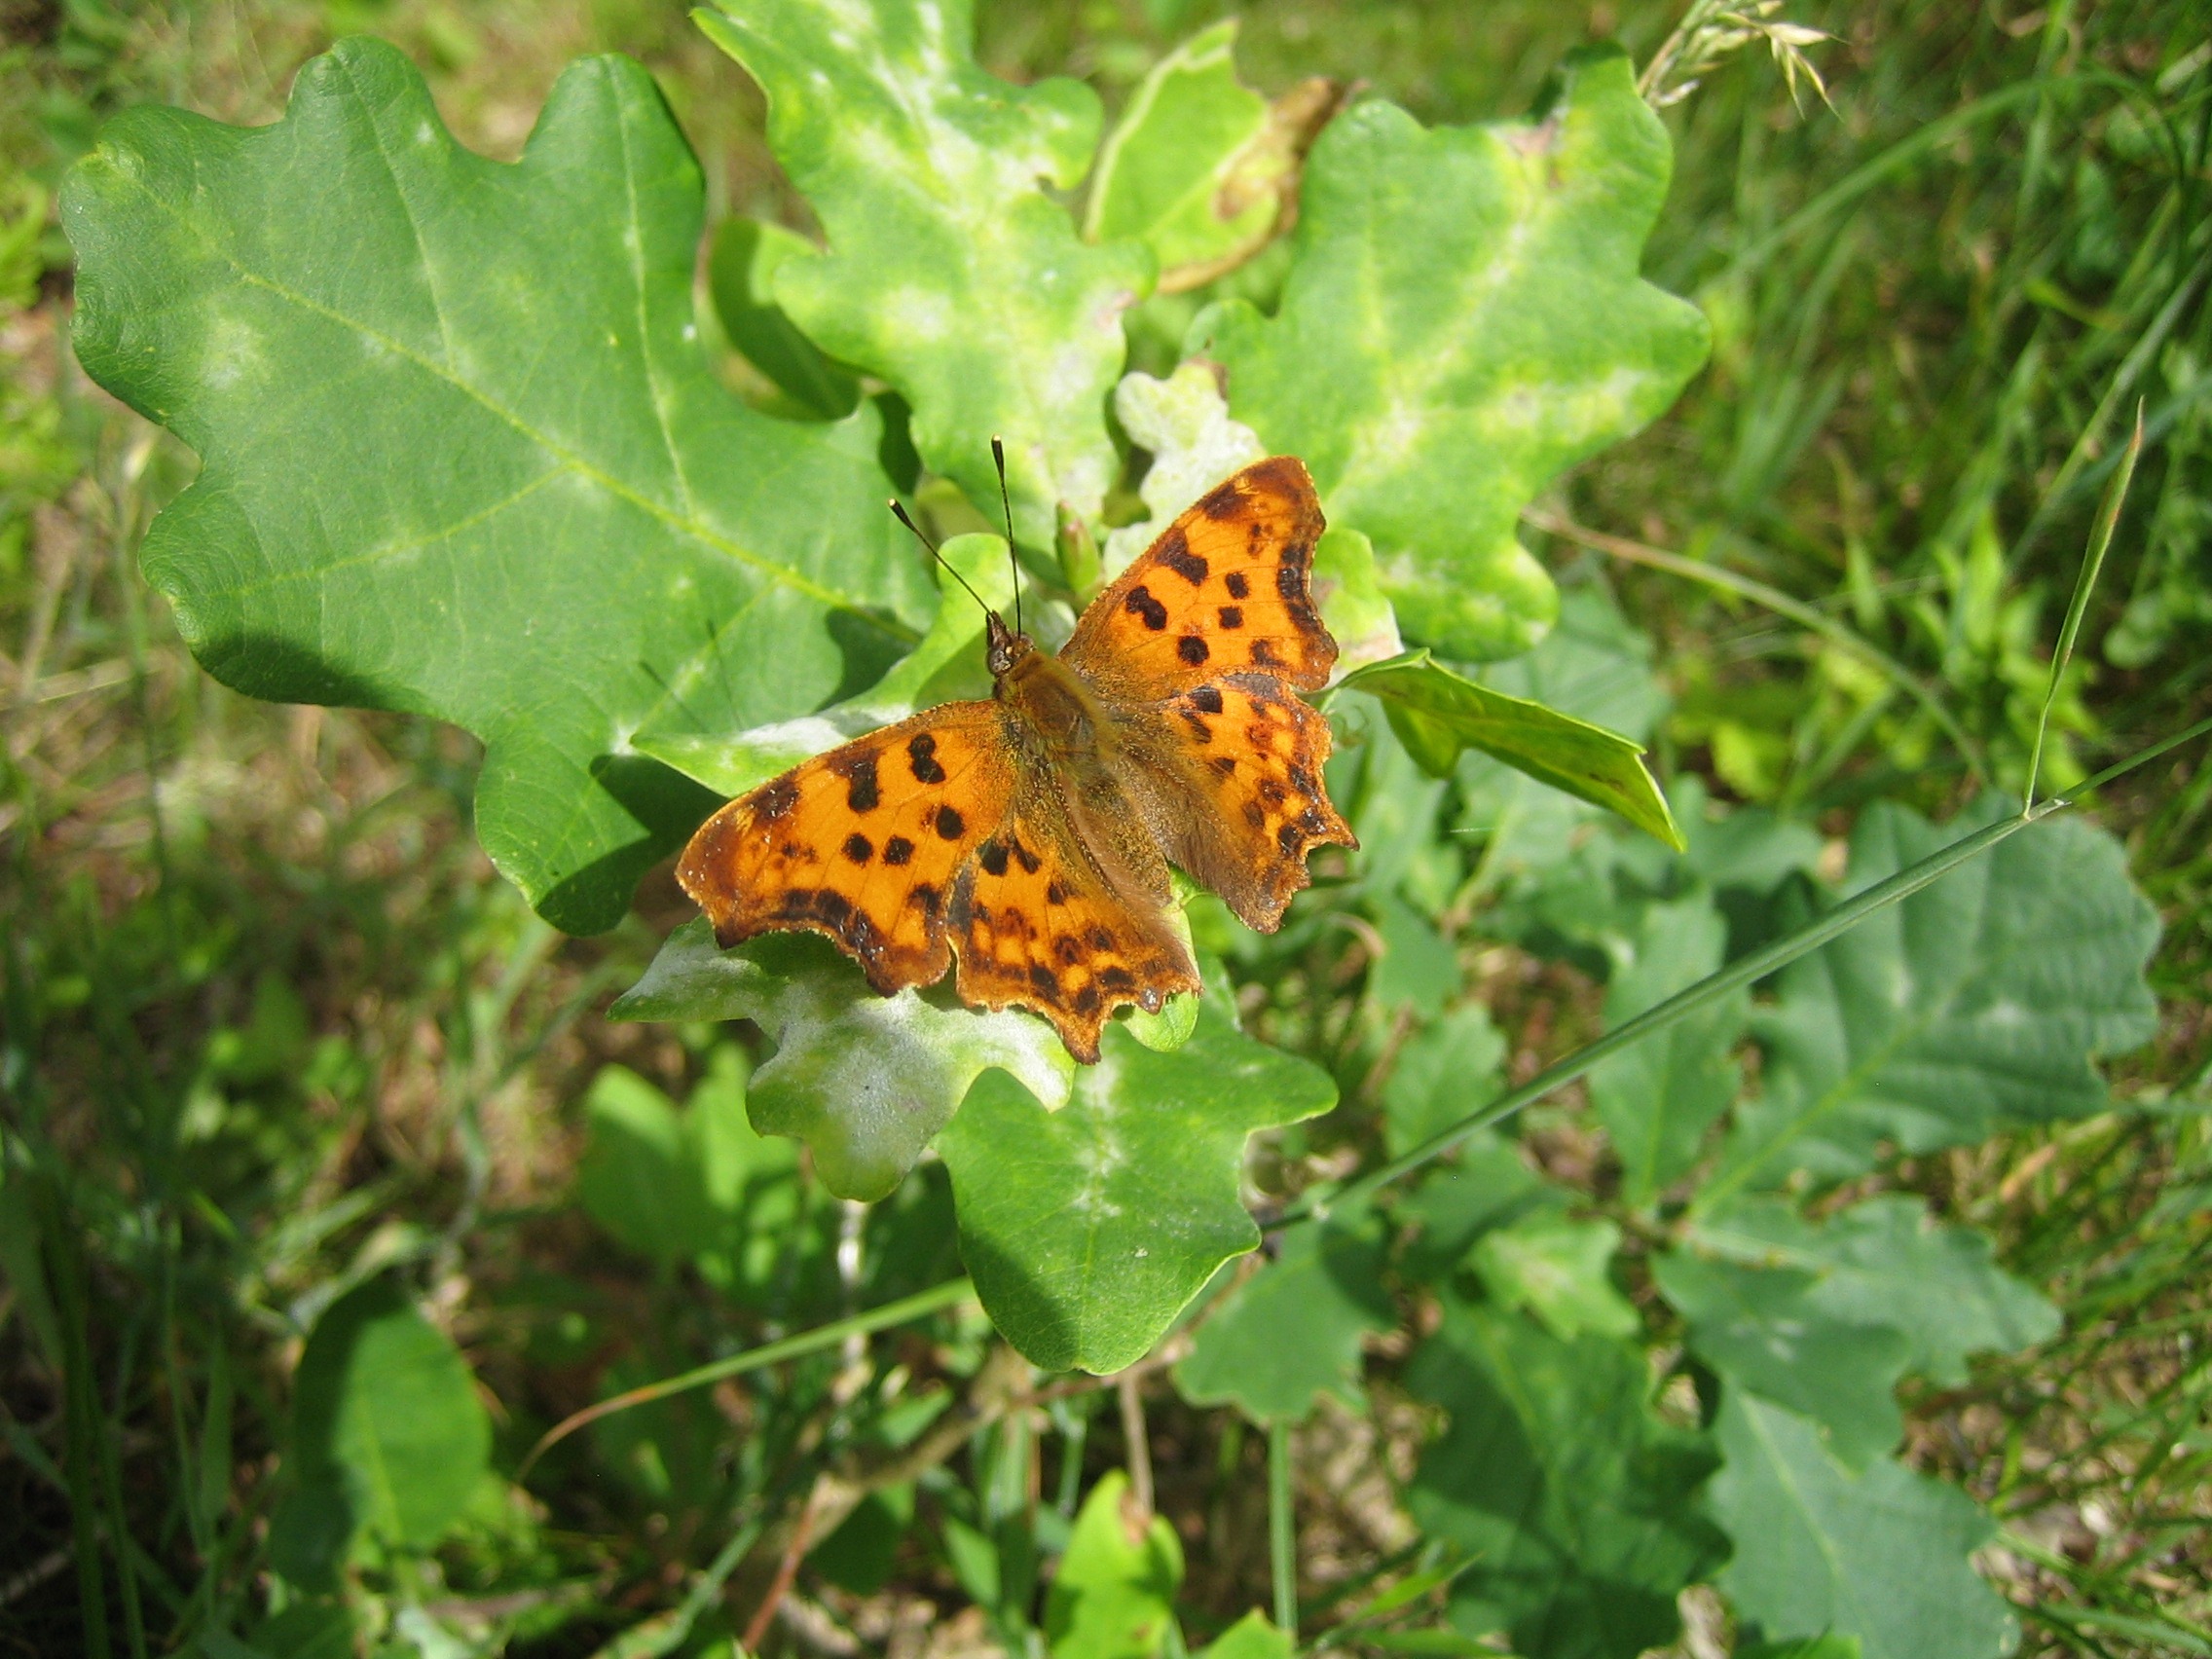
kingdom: Animalia
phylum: Arthropoda
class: Insecta
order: Lepidoptera
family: Nymphalidae
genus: Polygonia
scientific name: Polygonia c-album
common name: Det hvide C
